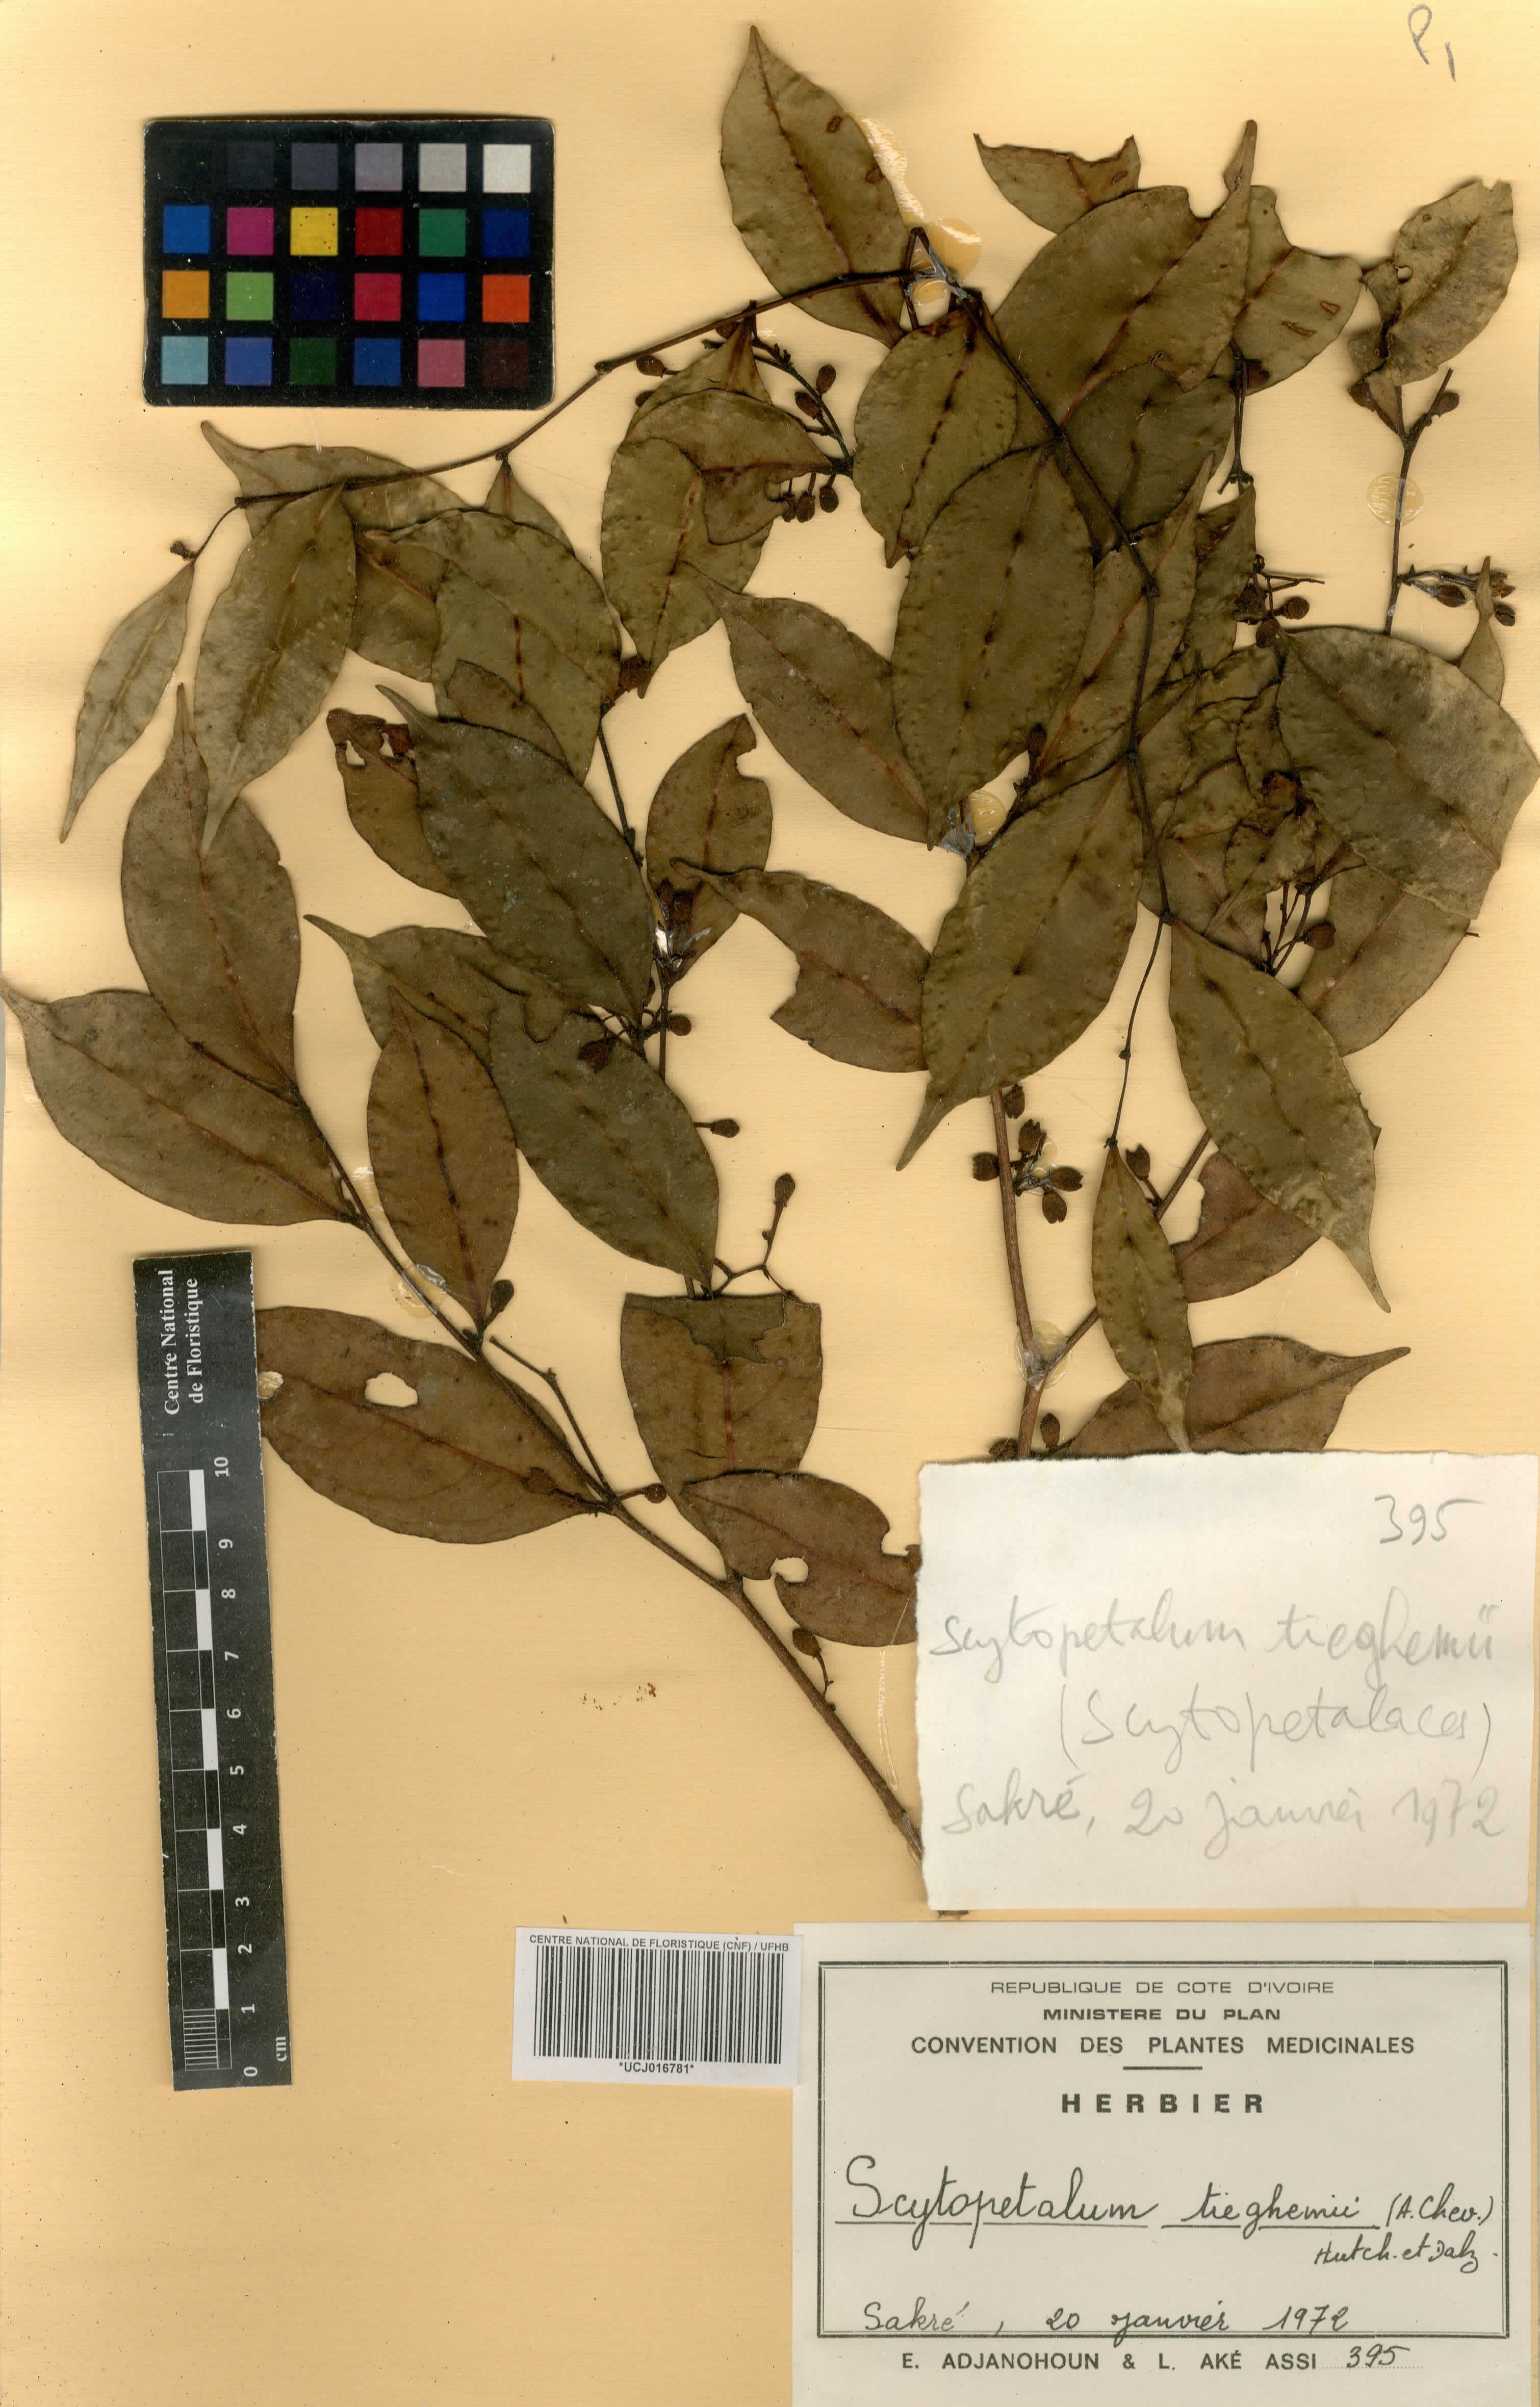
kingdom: Plantae
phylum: Tracheophyta
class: Magnoliopsida
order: Ericales
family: Lecythidaceae
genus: Scytopetalum
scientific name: Scytopetalum tieghemii
